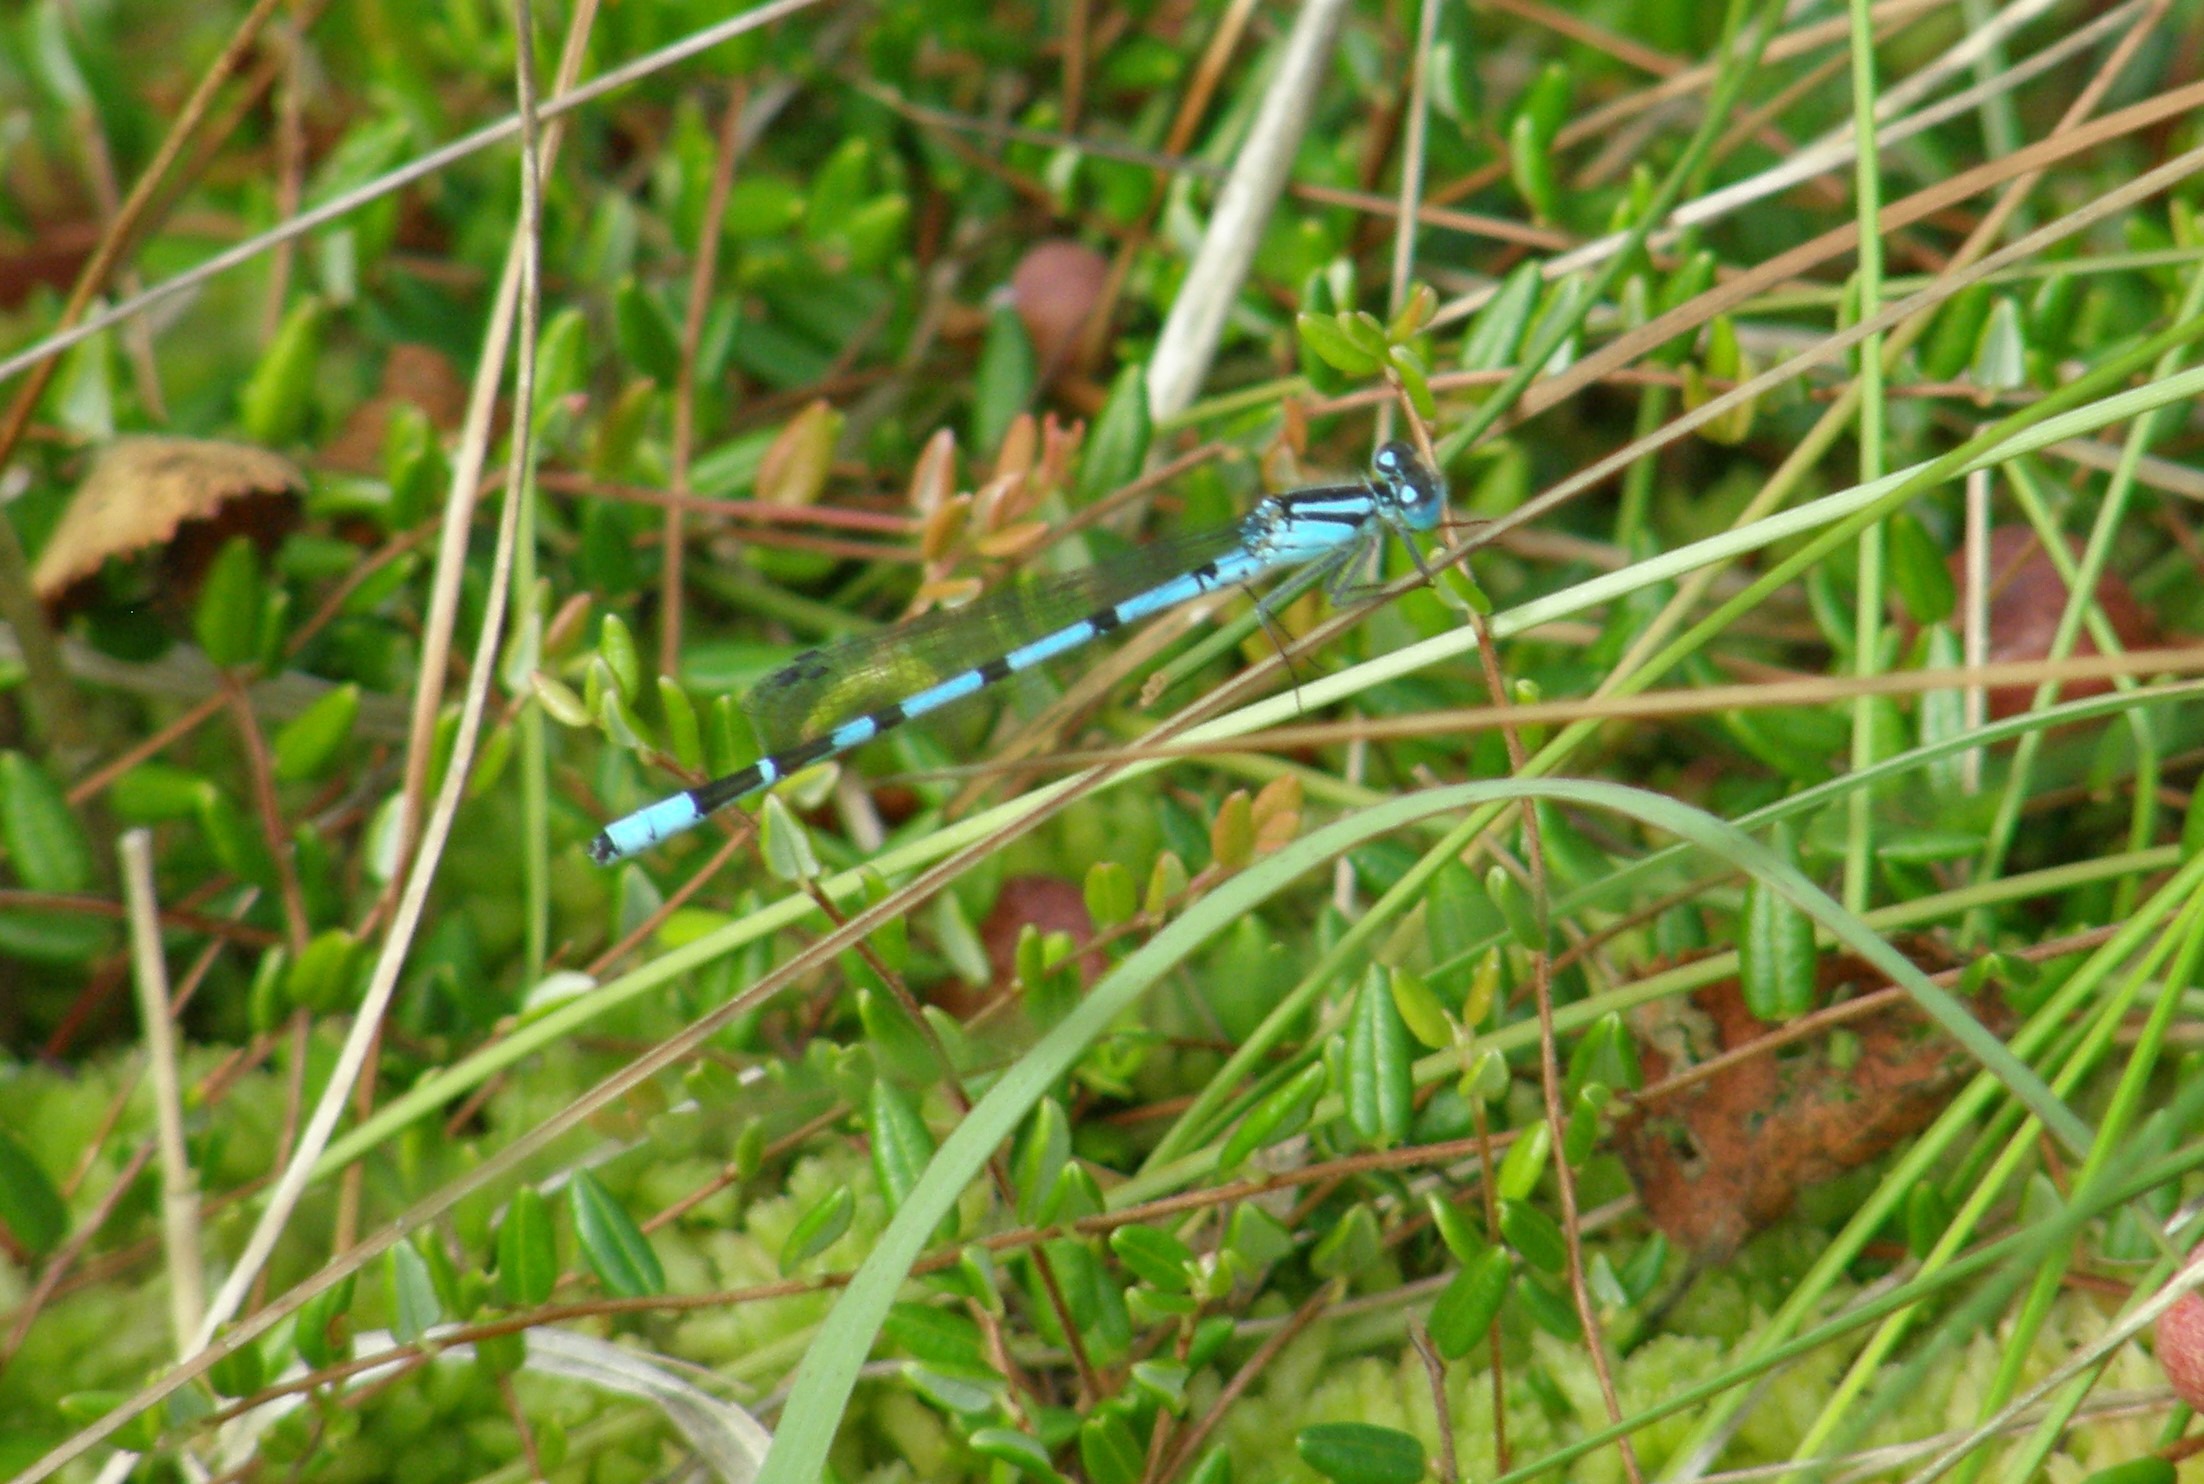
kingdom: Animalia
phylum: Arthropoda
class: Insecta
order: Odonata
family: Coenagrionidae
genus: Enallagma
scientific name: Enallagma cyathigerum
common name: Almindelig vandnymfe
